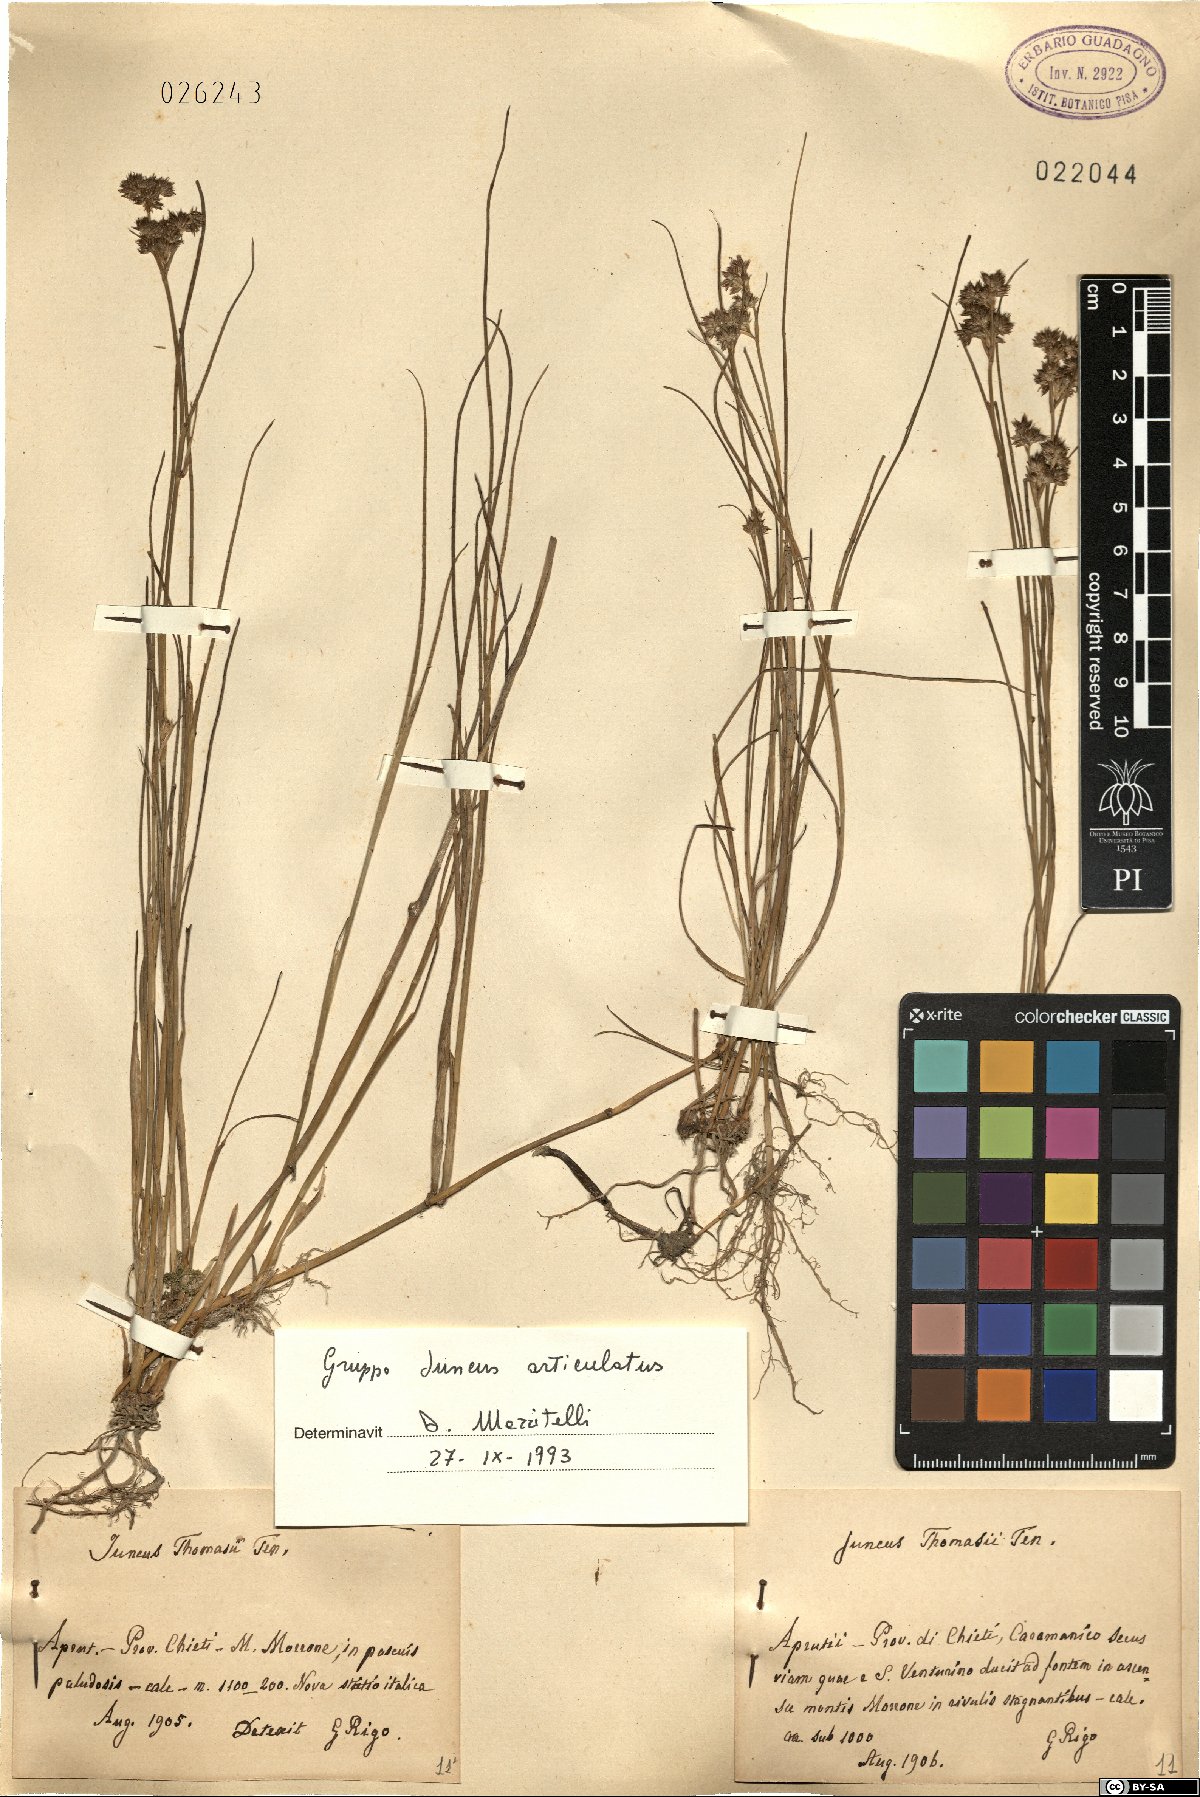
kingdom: Plantae
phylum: Tracheophyta
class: Liliopsida
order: Poales
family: Juncaceae
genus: Juncus
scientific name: Juncus articulatus
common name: Jointed rush
